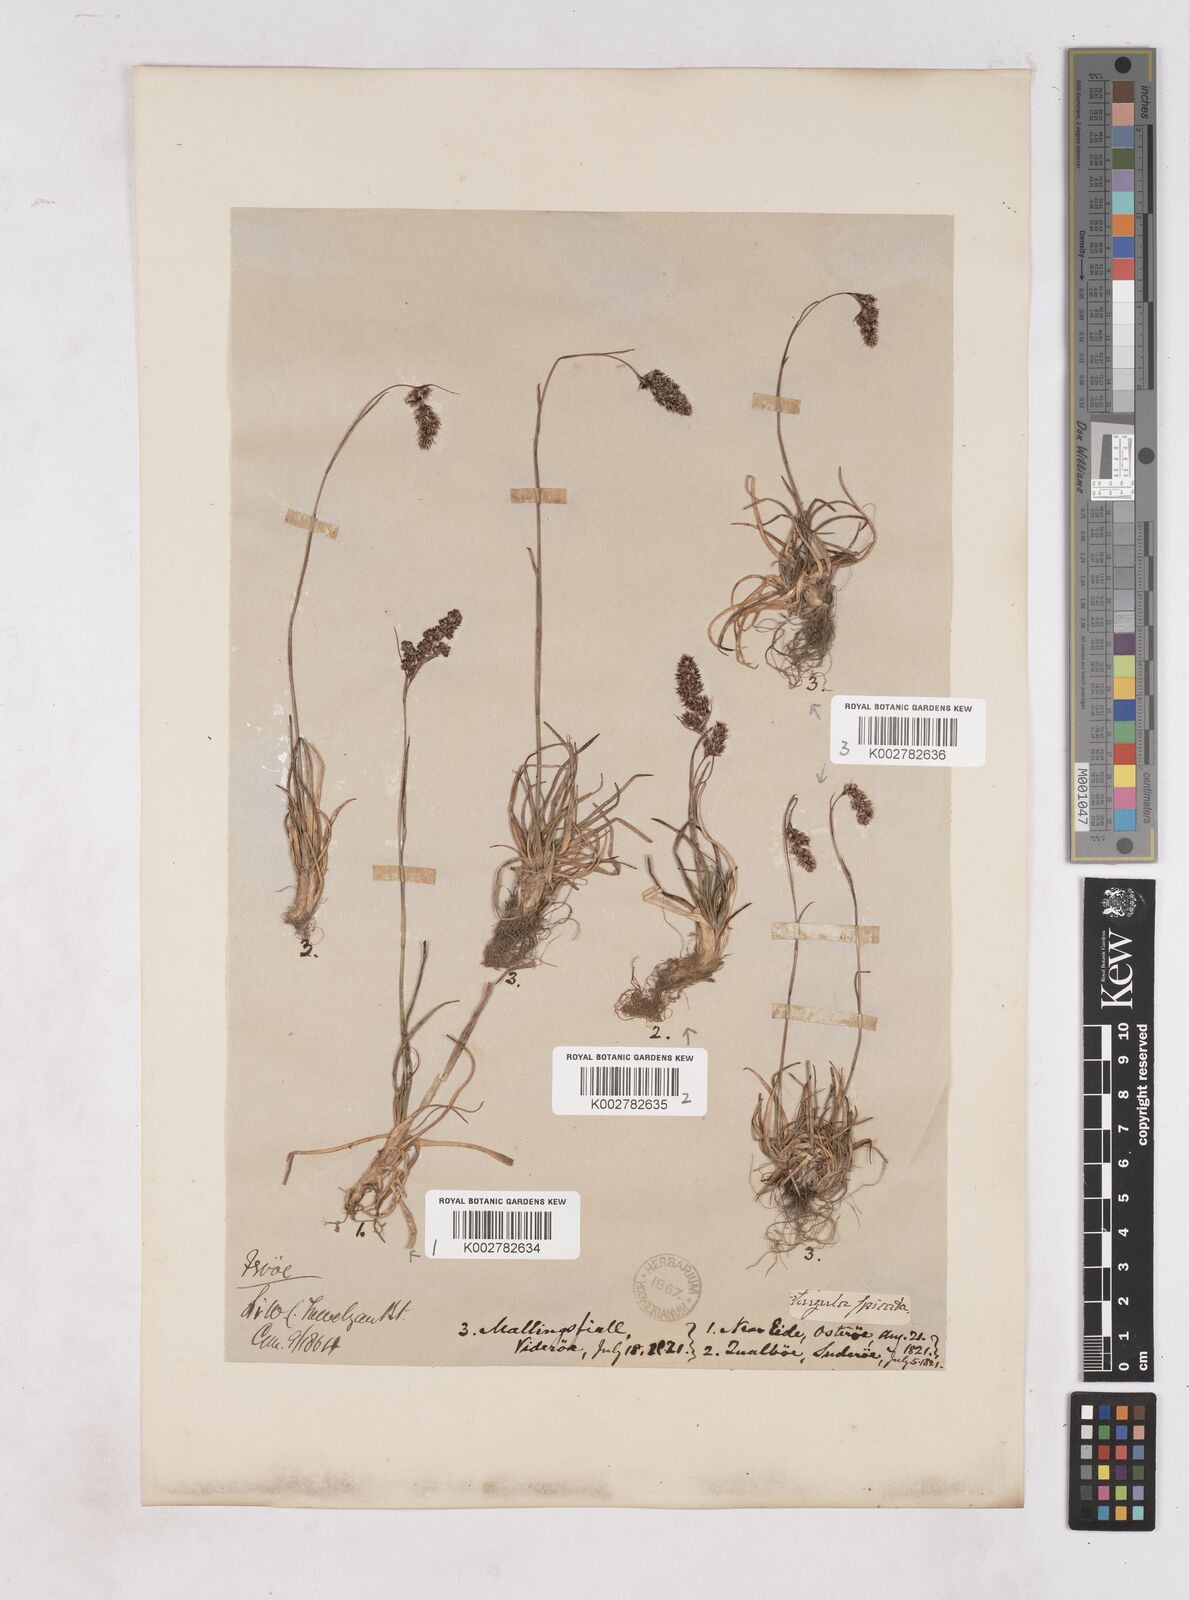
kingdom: Plantae
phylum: Tracheophyta
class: Liliopsida
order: Poales
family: Juncaceae
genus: Luzula
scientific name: Luzula spicata
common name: Spiked wood-rush
